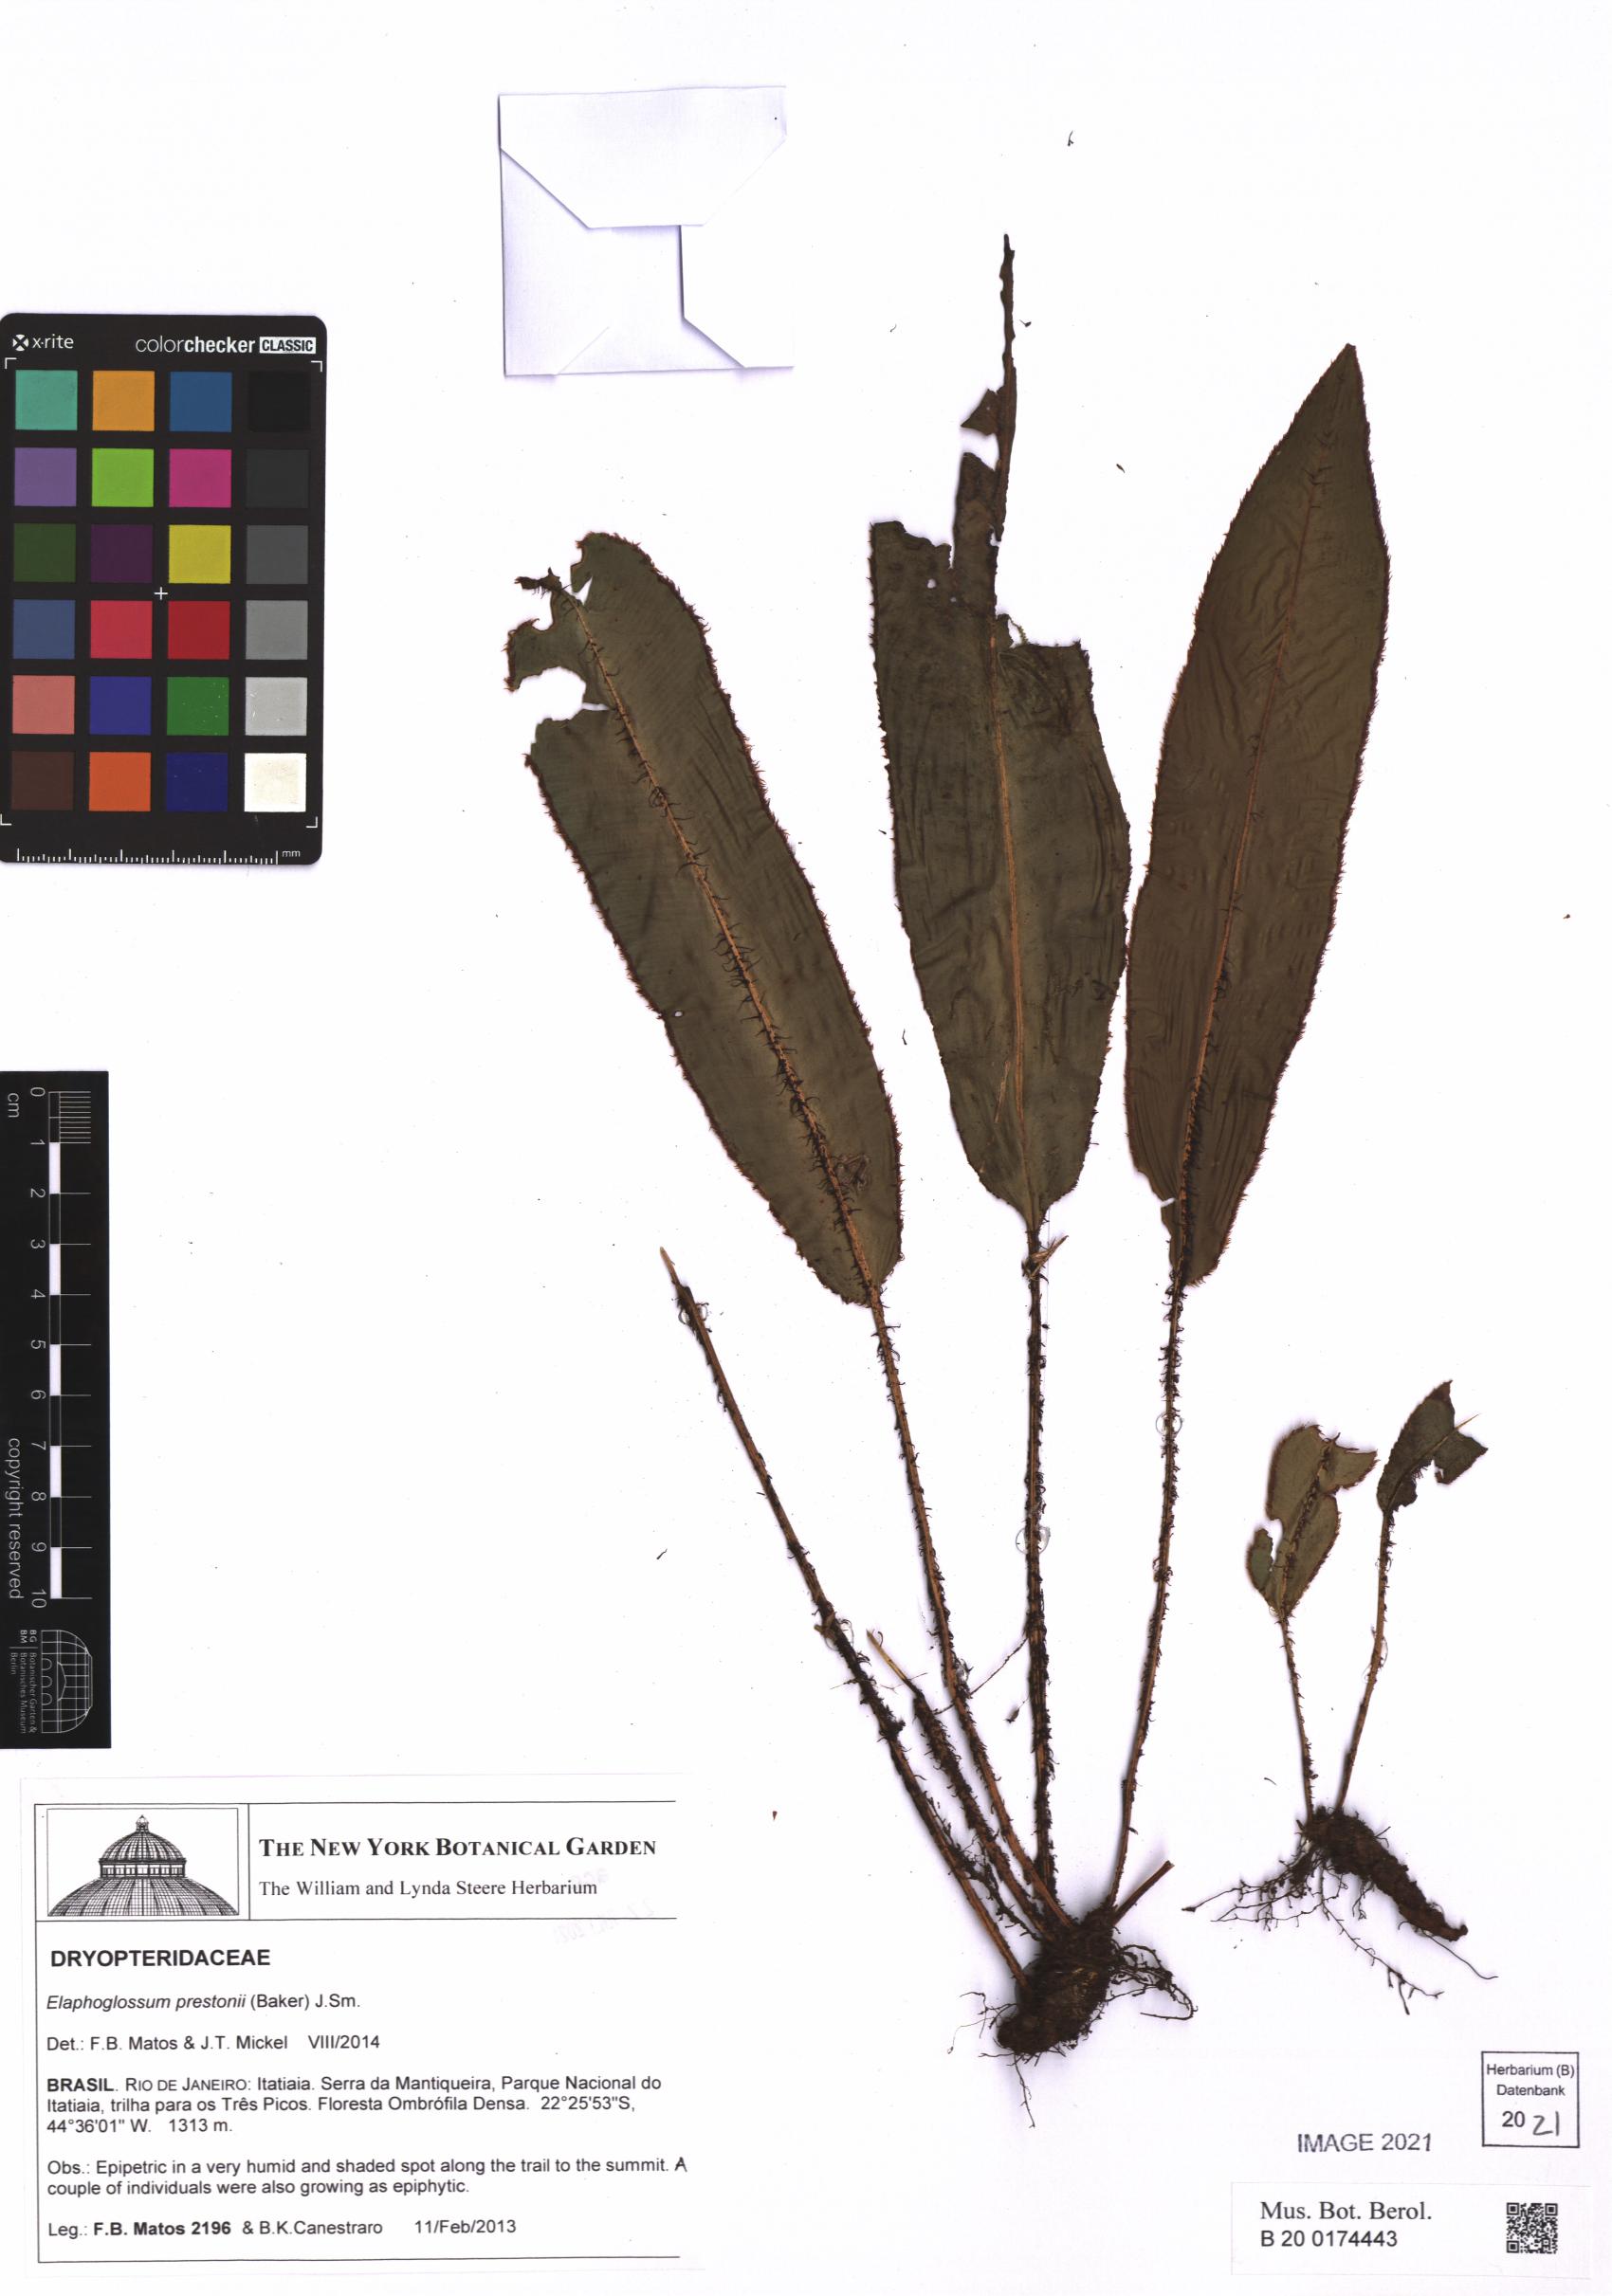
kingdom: Plantae
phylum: Tracheophyta
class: Polypodiopsida
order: Polypodiales
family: Dryopteridaceae
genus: Elaphoglossum
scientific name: Elaphoglossum prestonii
